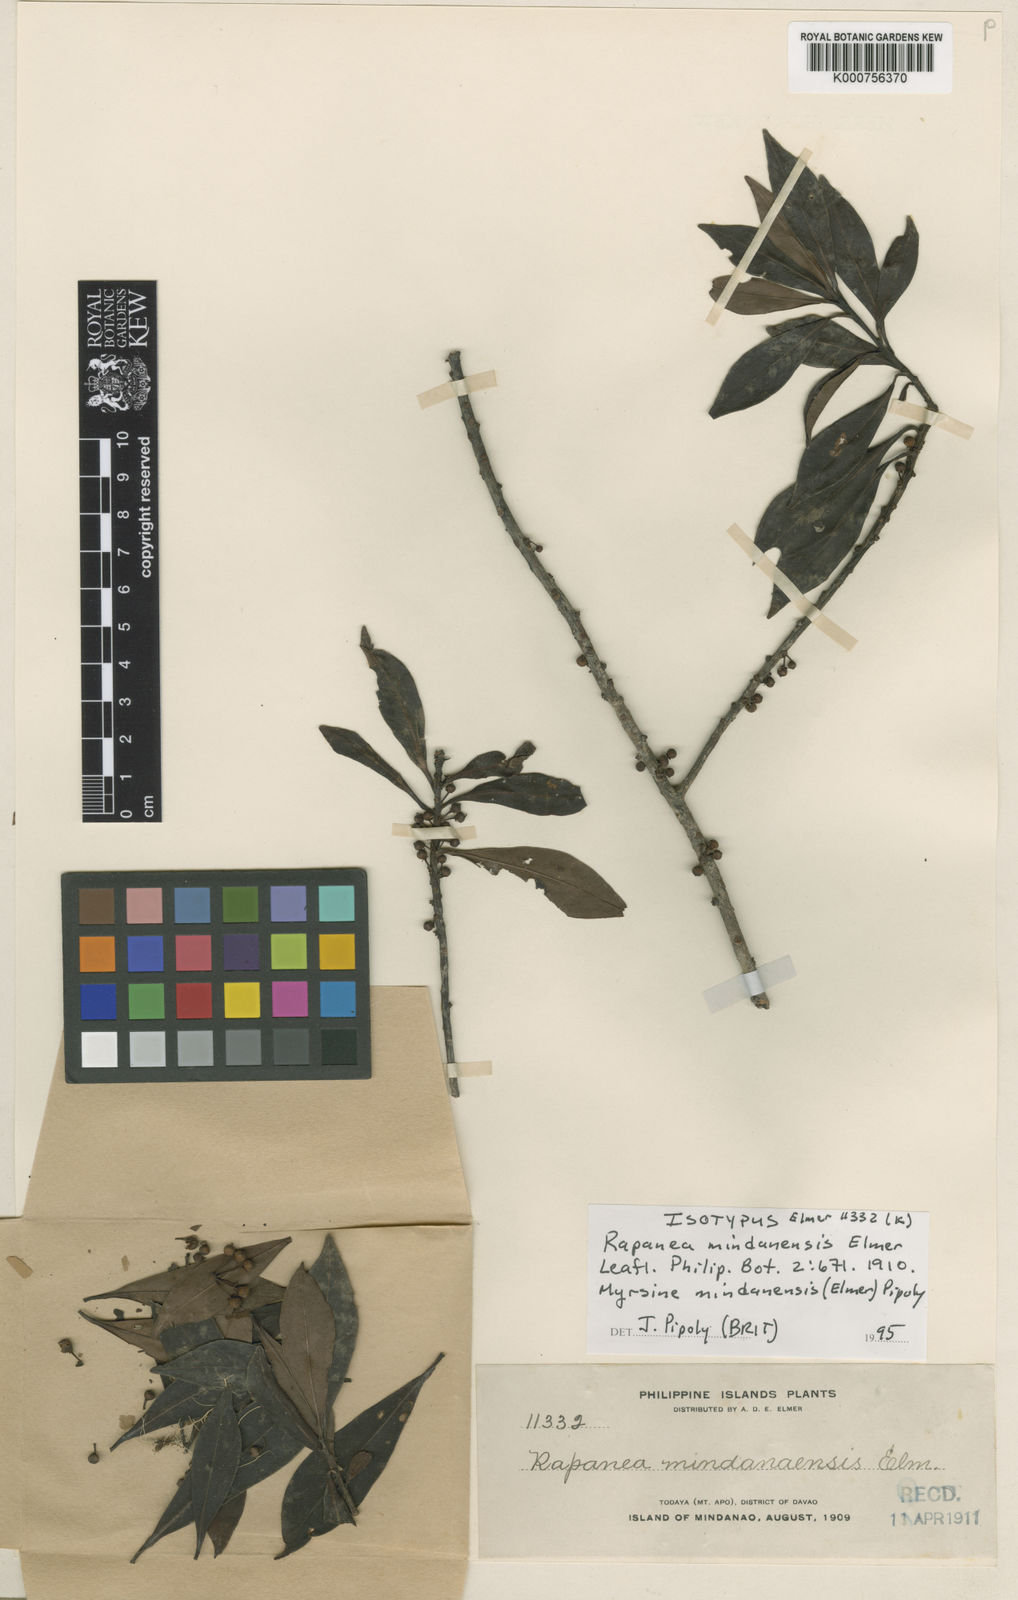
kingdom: Plantae
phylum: Tracheophyta
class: Magnoliopsida
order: Ericales
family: Primulaceae
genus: Myrsine
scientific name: Myrsine mindanaensis
